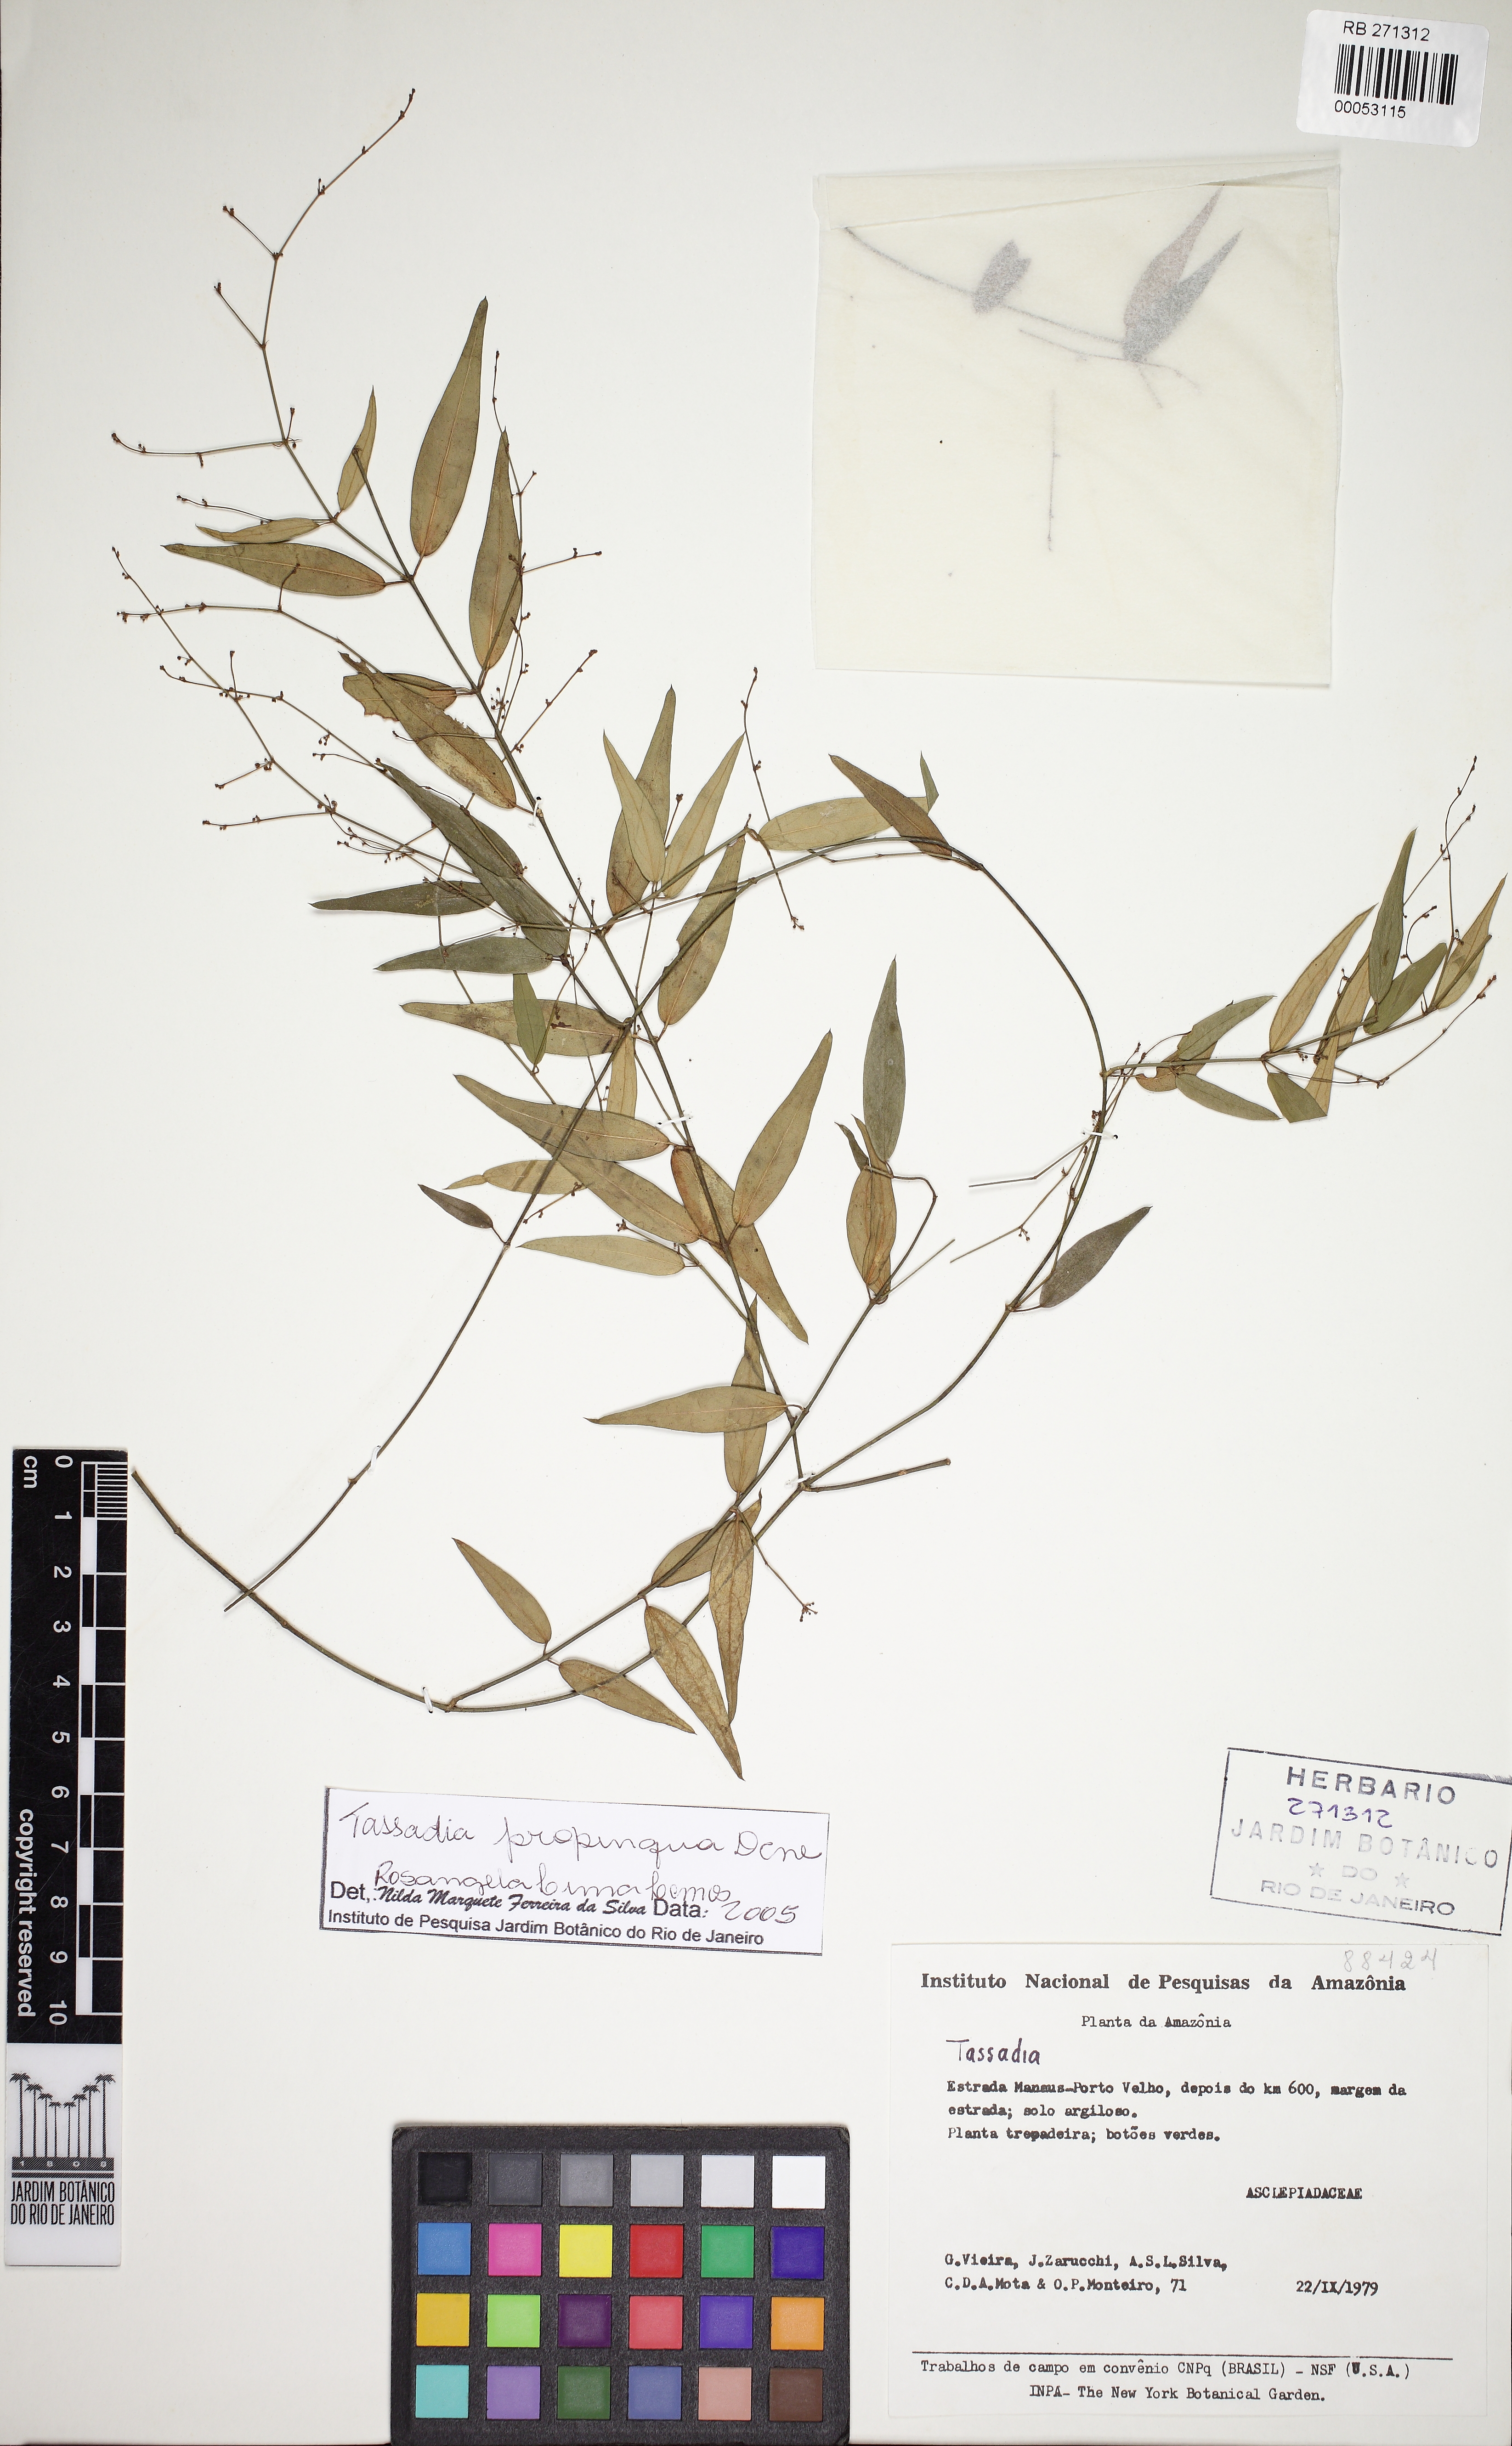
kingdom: Plantae
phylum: Tracheophyta
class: Magnoliopsida
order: Gentianales
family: Apocynaceae
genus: Tassadia
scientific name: Tassadia propinqua
